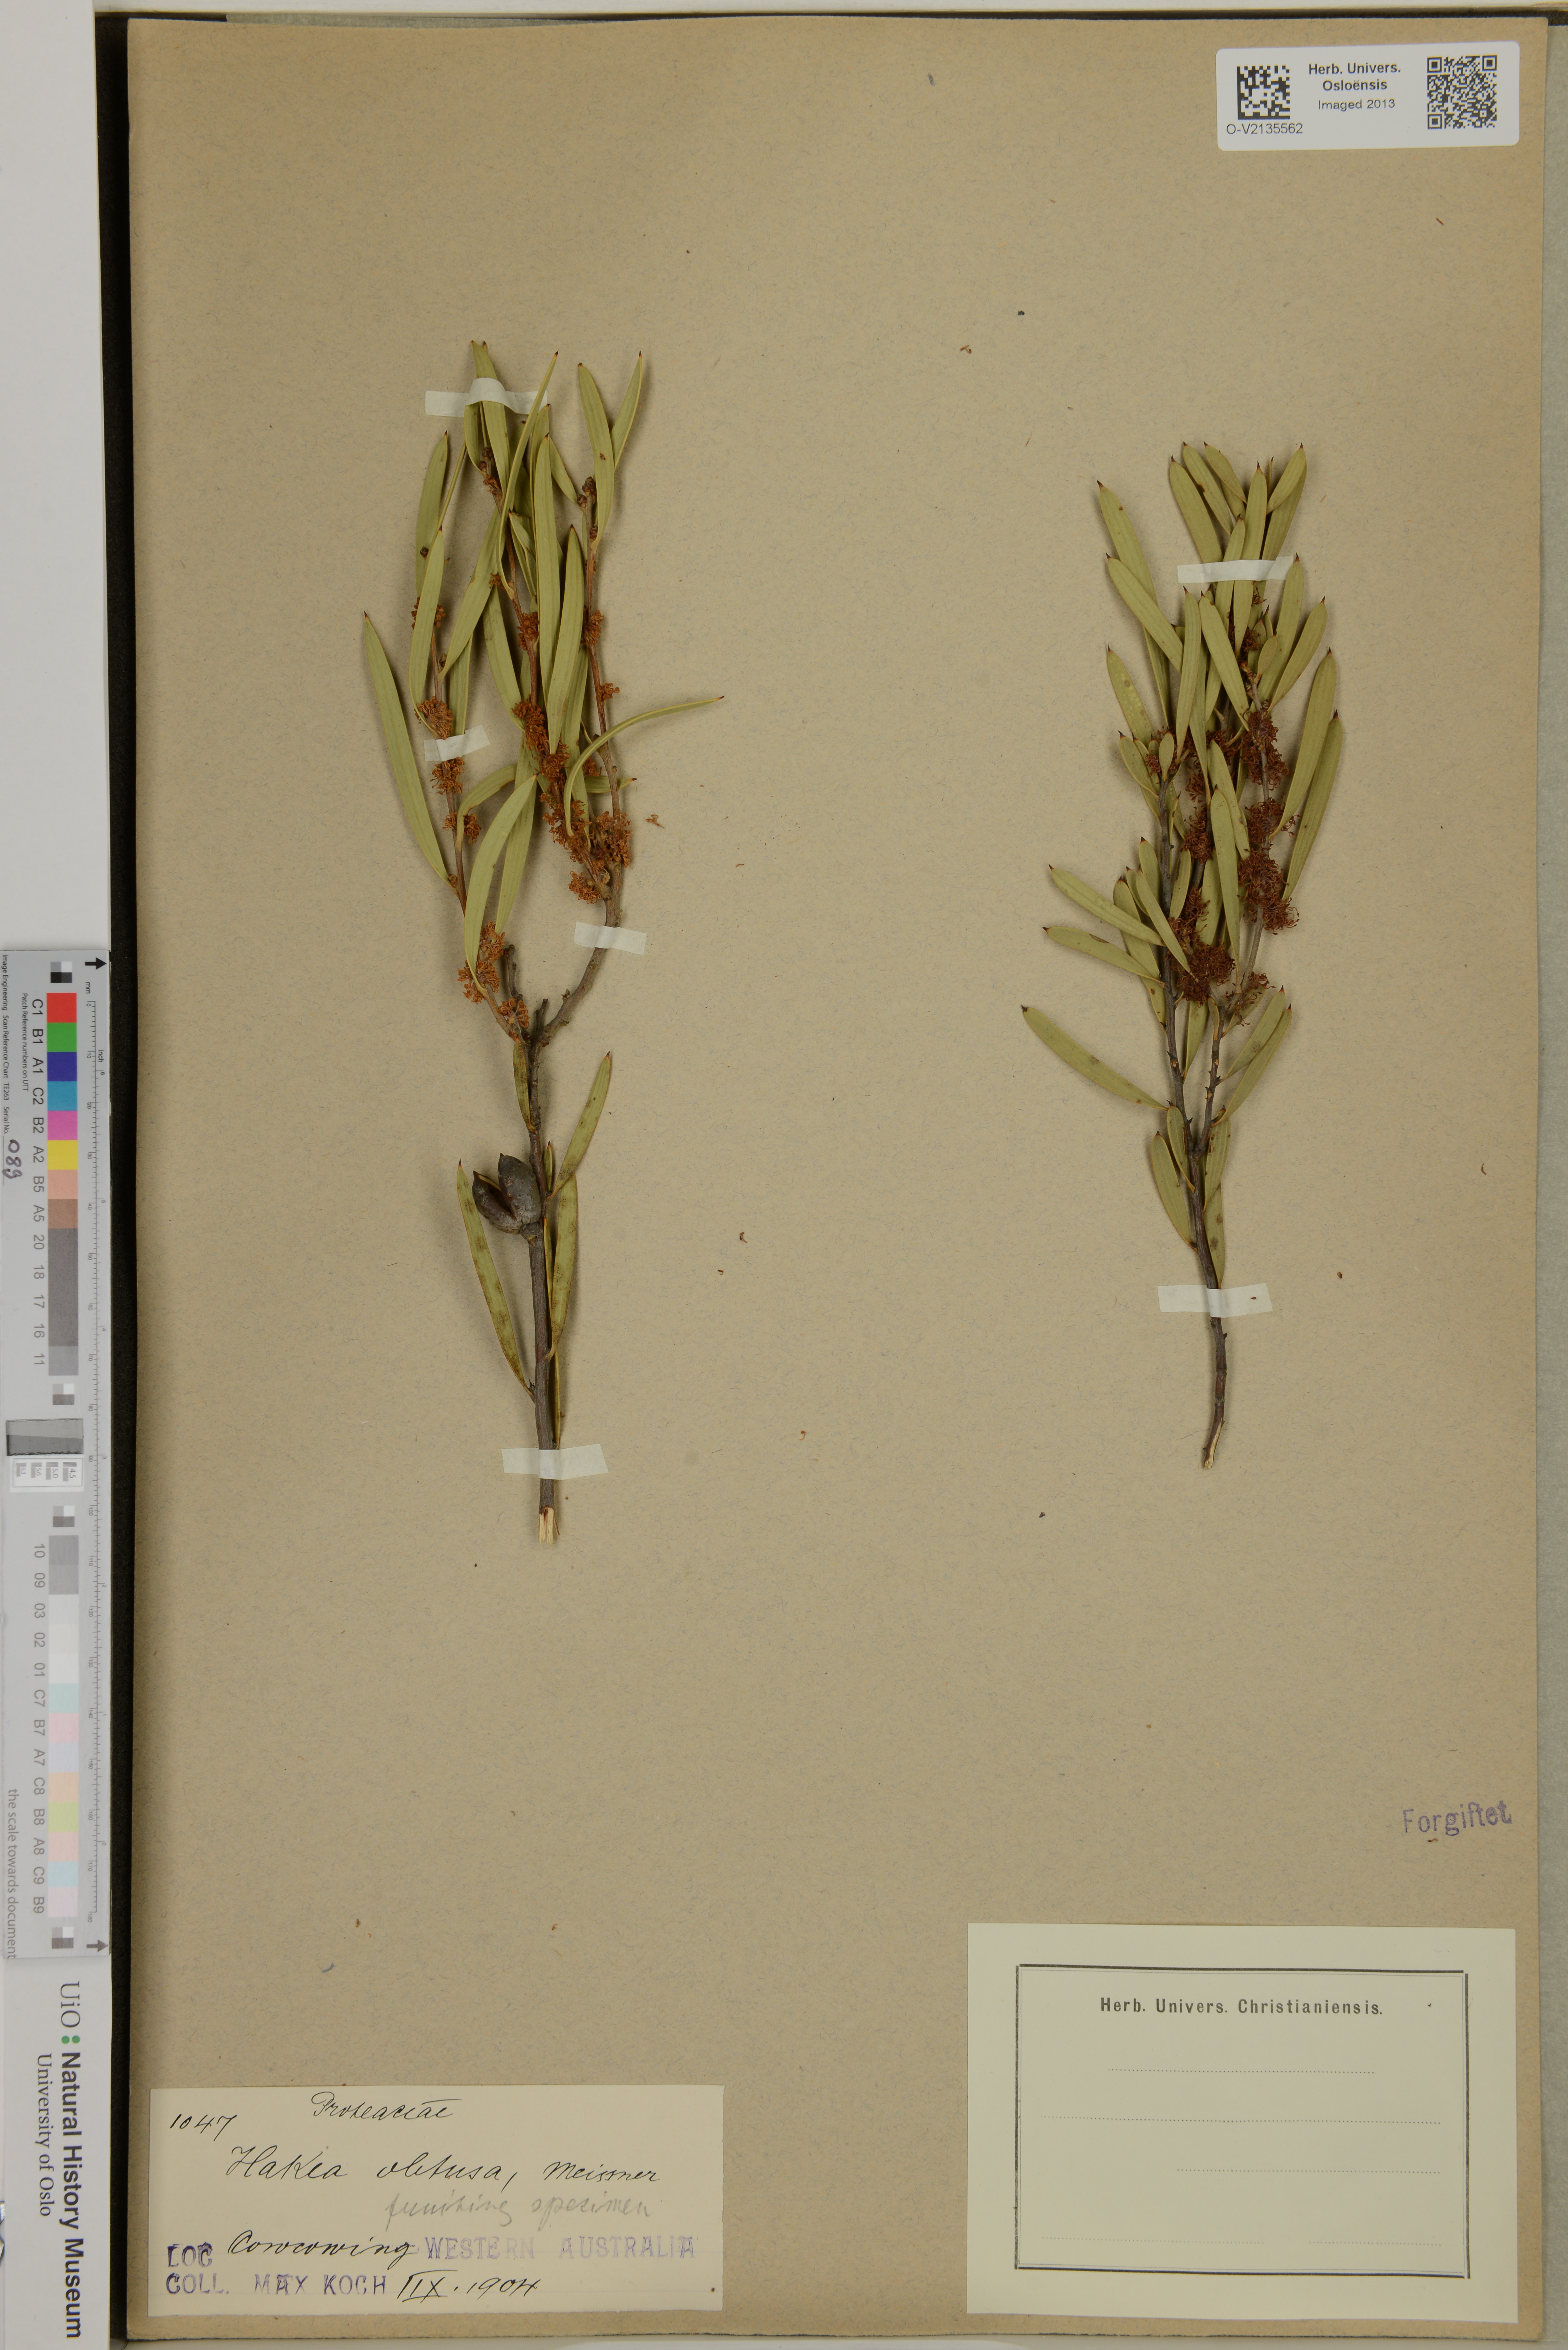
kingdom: Plantae
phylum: Tracheophyta
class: Magnoliopsida
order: Proteales
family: Proteaceae
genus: Hakea
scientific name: Hakea obtusa
